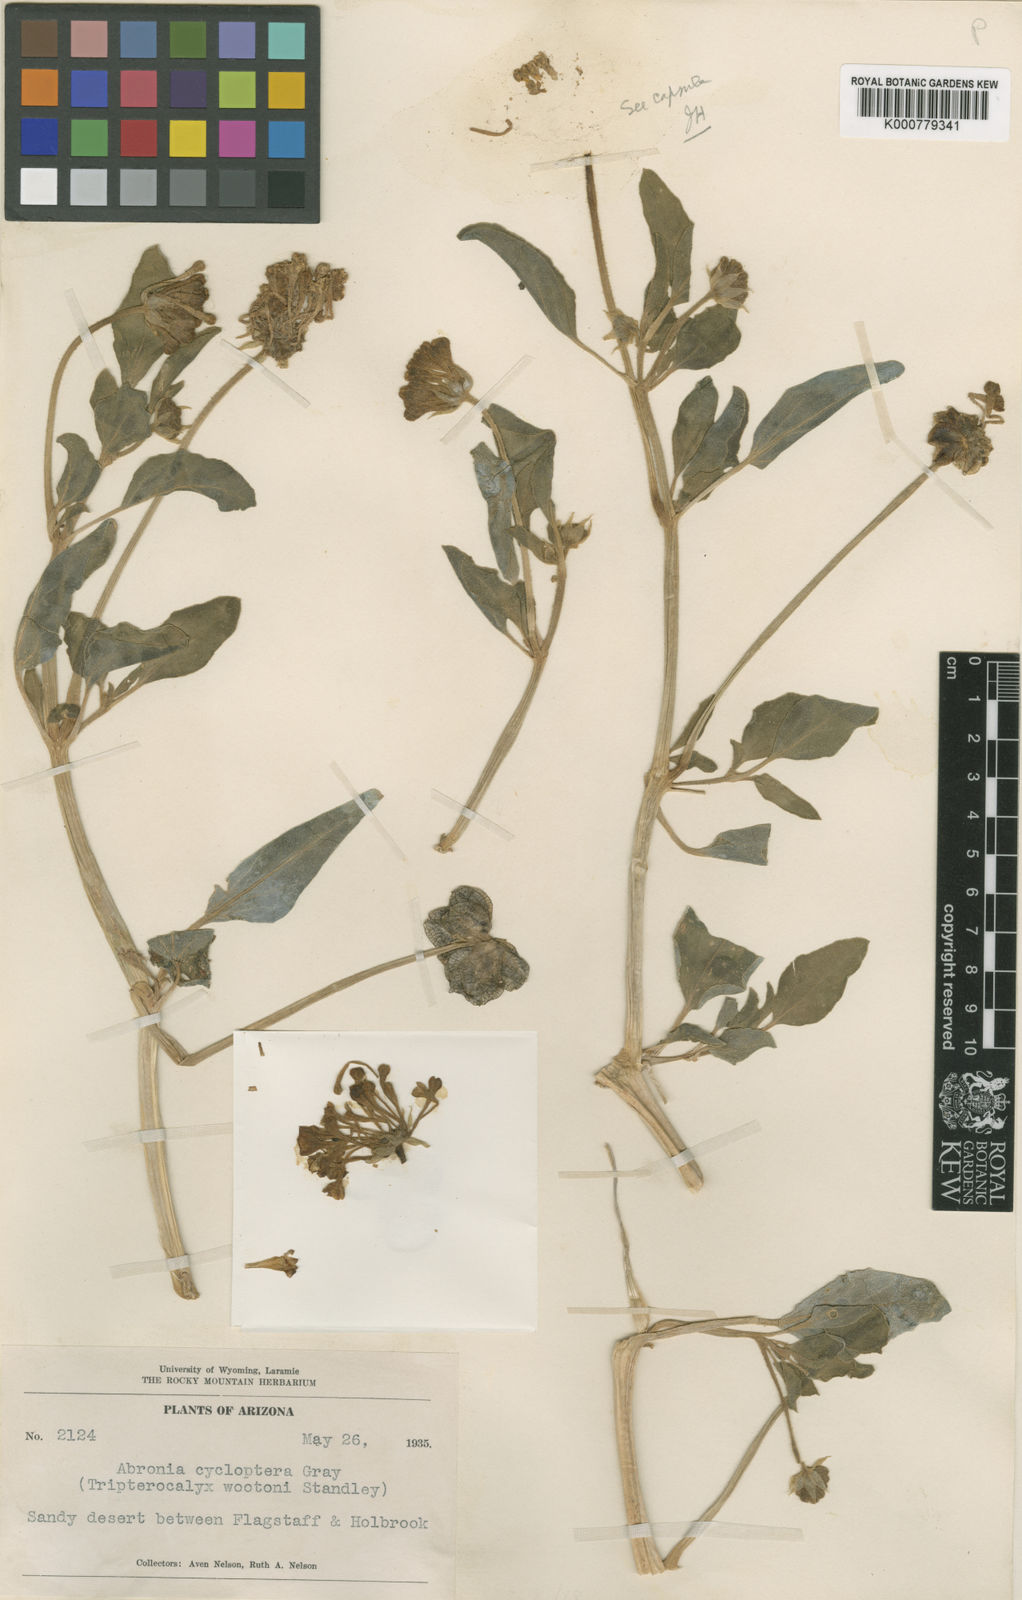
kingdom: Plantae
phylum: Tracheophyta
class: Magnoliopsida
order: Caryophyllales
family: Nyctaginaceae
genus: Tripterocalyx
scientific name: Tripterocalyx micranthus
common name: Small-flowered sand-verbena
